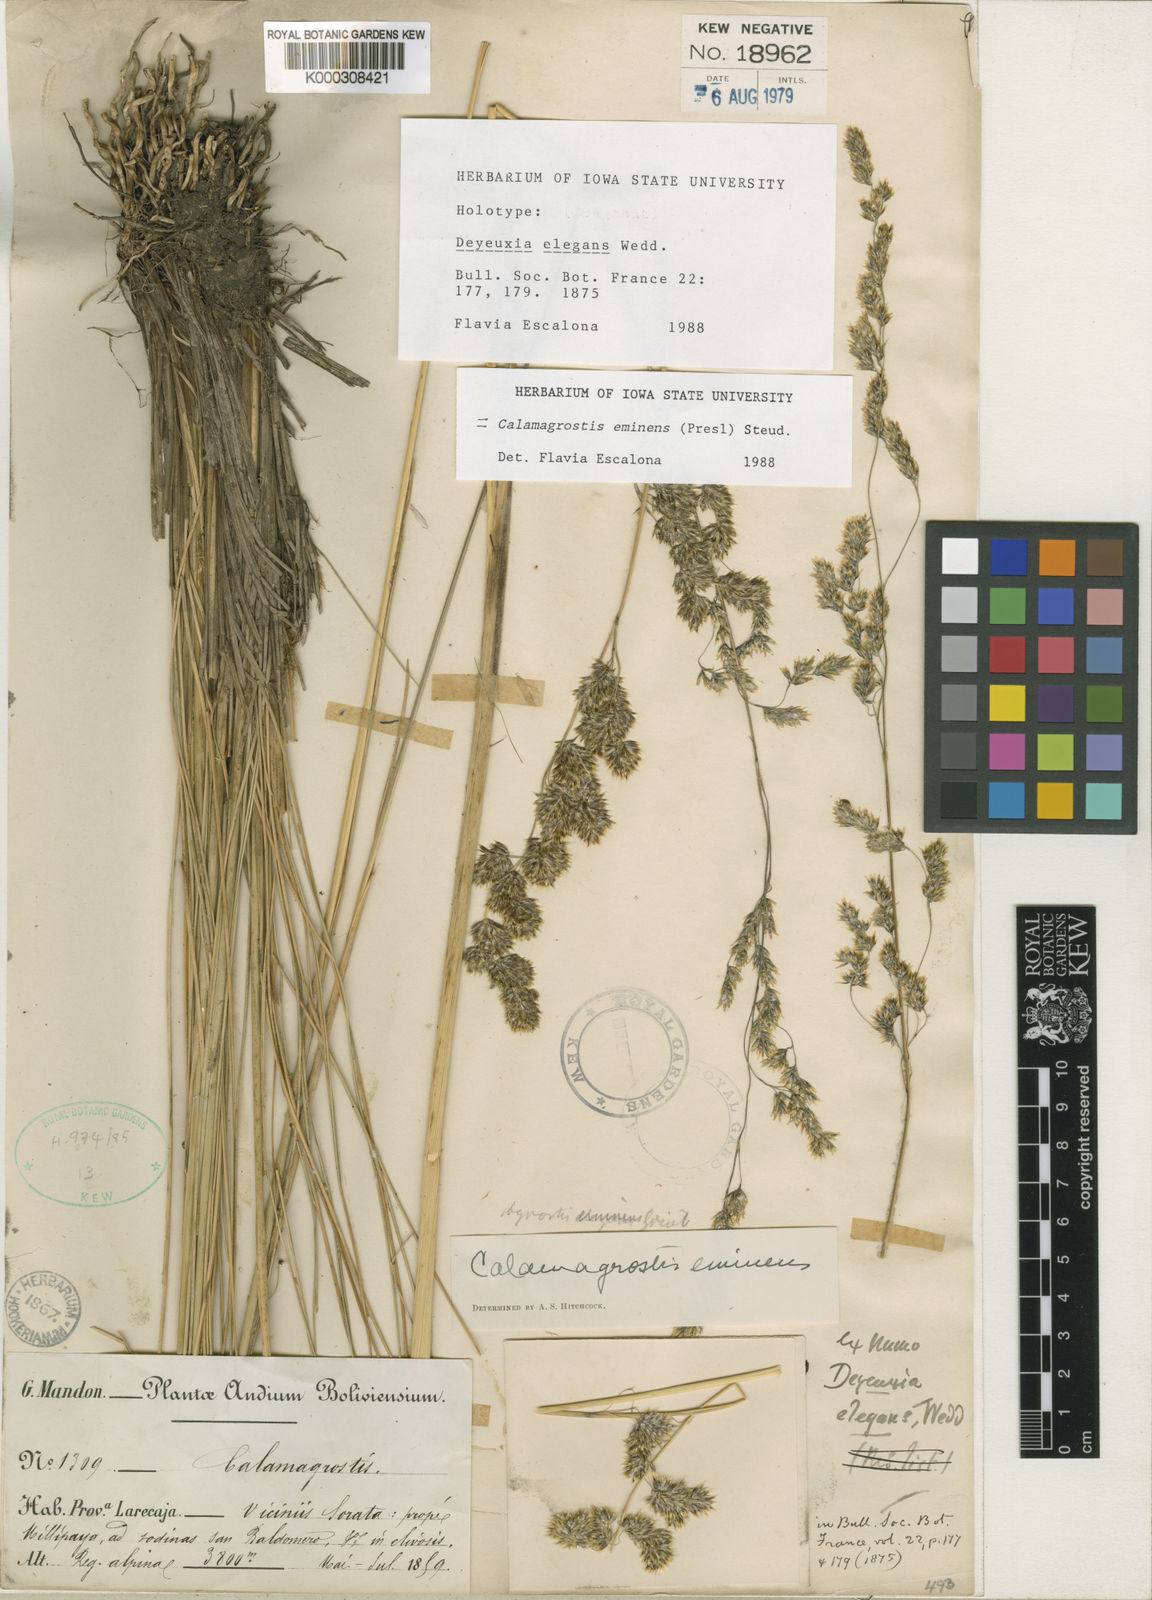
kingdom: Plantae
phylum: Tracheophyta
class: Liliopsida
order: Poales
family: Poaceae
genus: Deschampsia
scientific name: Deschampsia eminens
